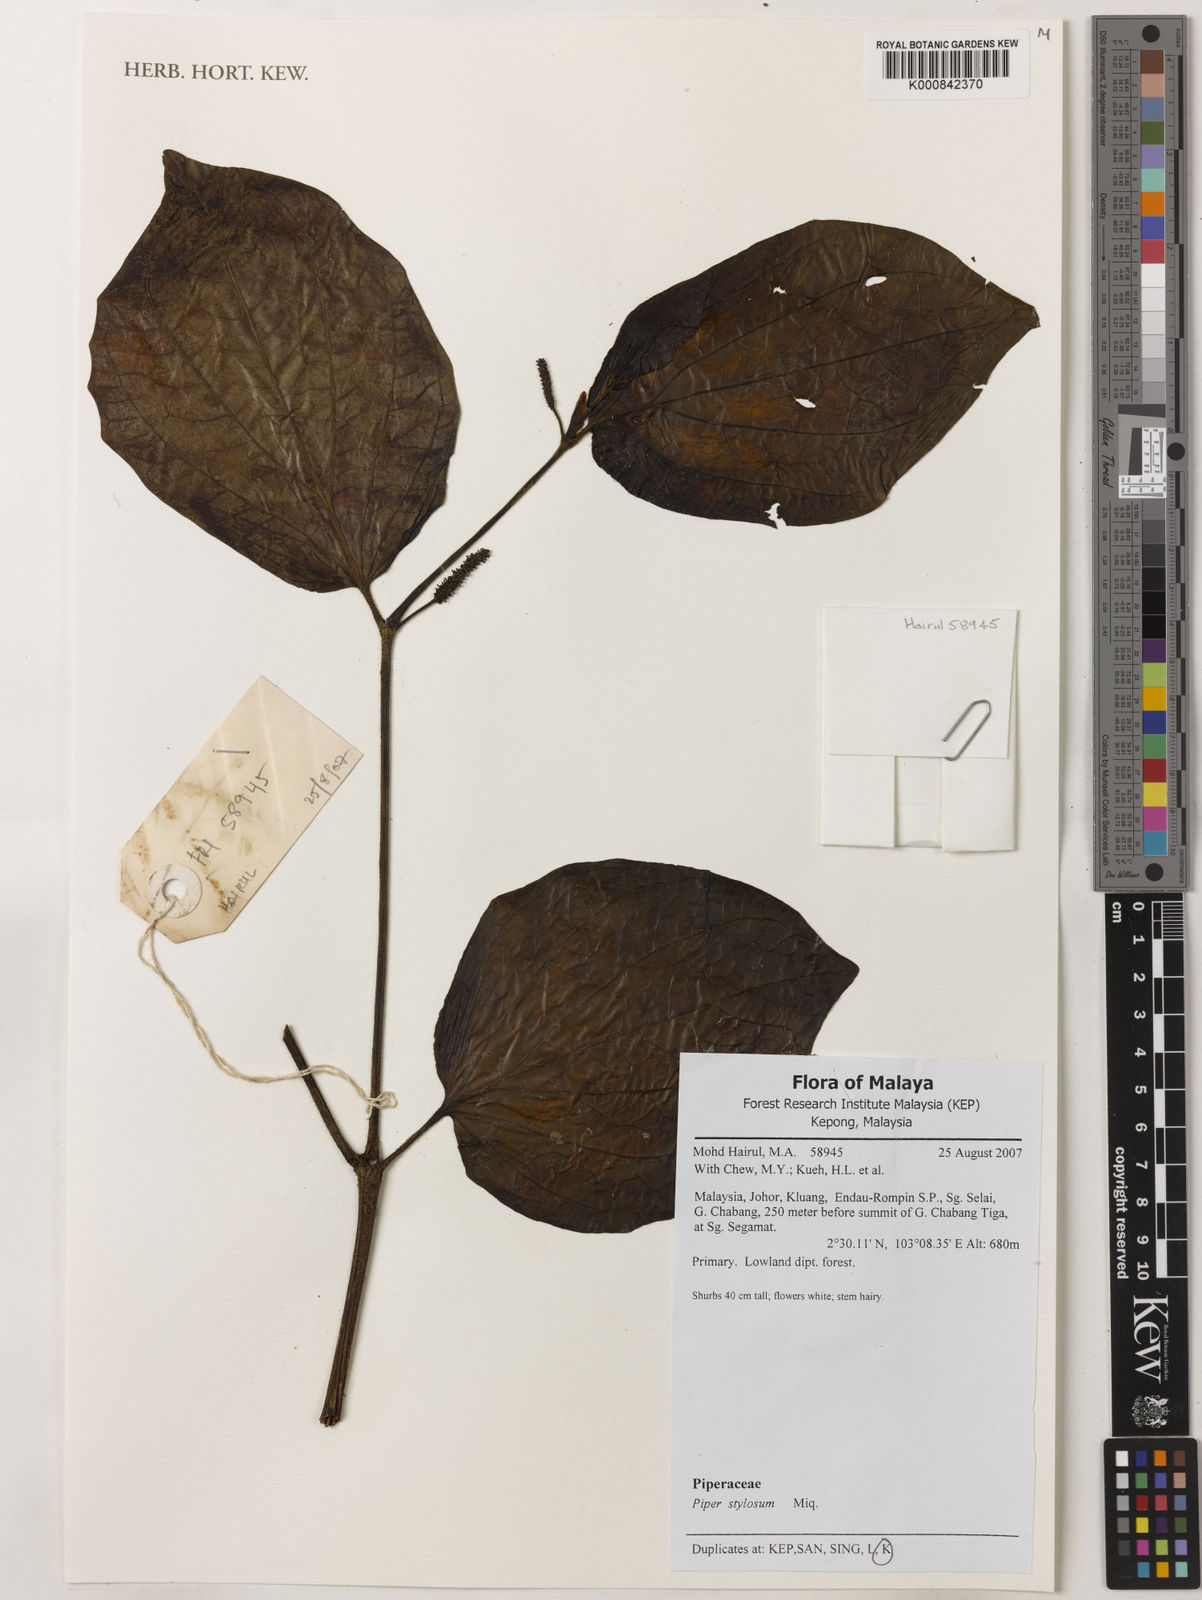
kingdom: Plantae
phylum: Tracheophyta
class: Magnoliopsida
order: Piperales
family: Piperaceae
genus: Piper
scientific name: Piper rostratum
